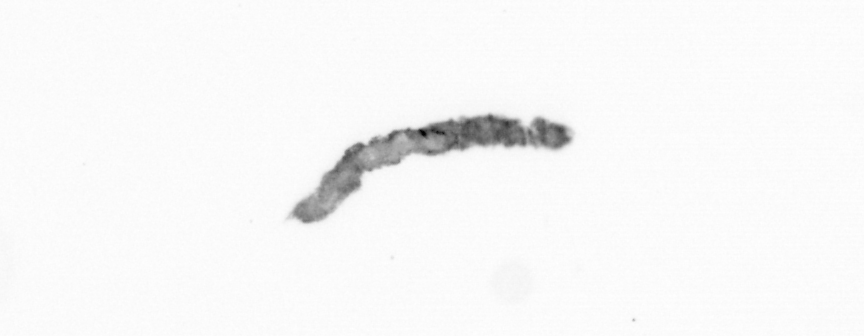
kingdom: Animalia
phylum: Arthropoda
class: Copepoda
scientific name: Copepoda
